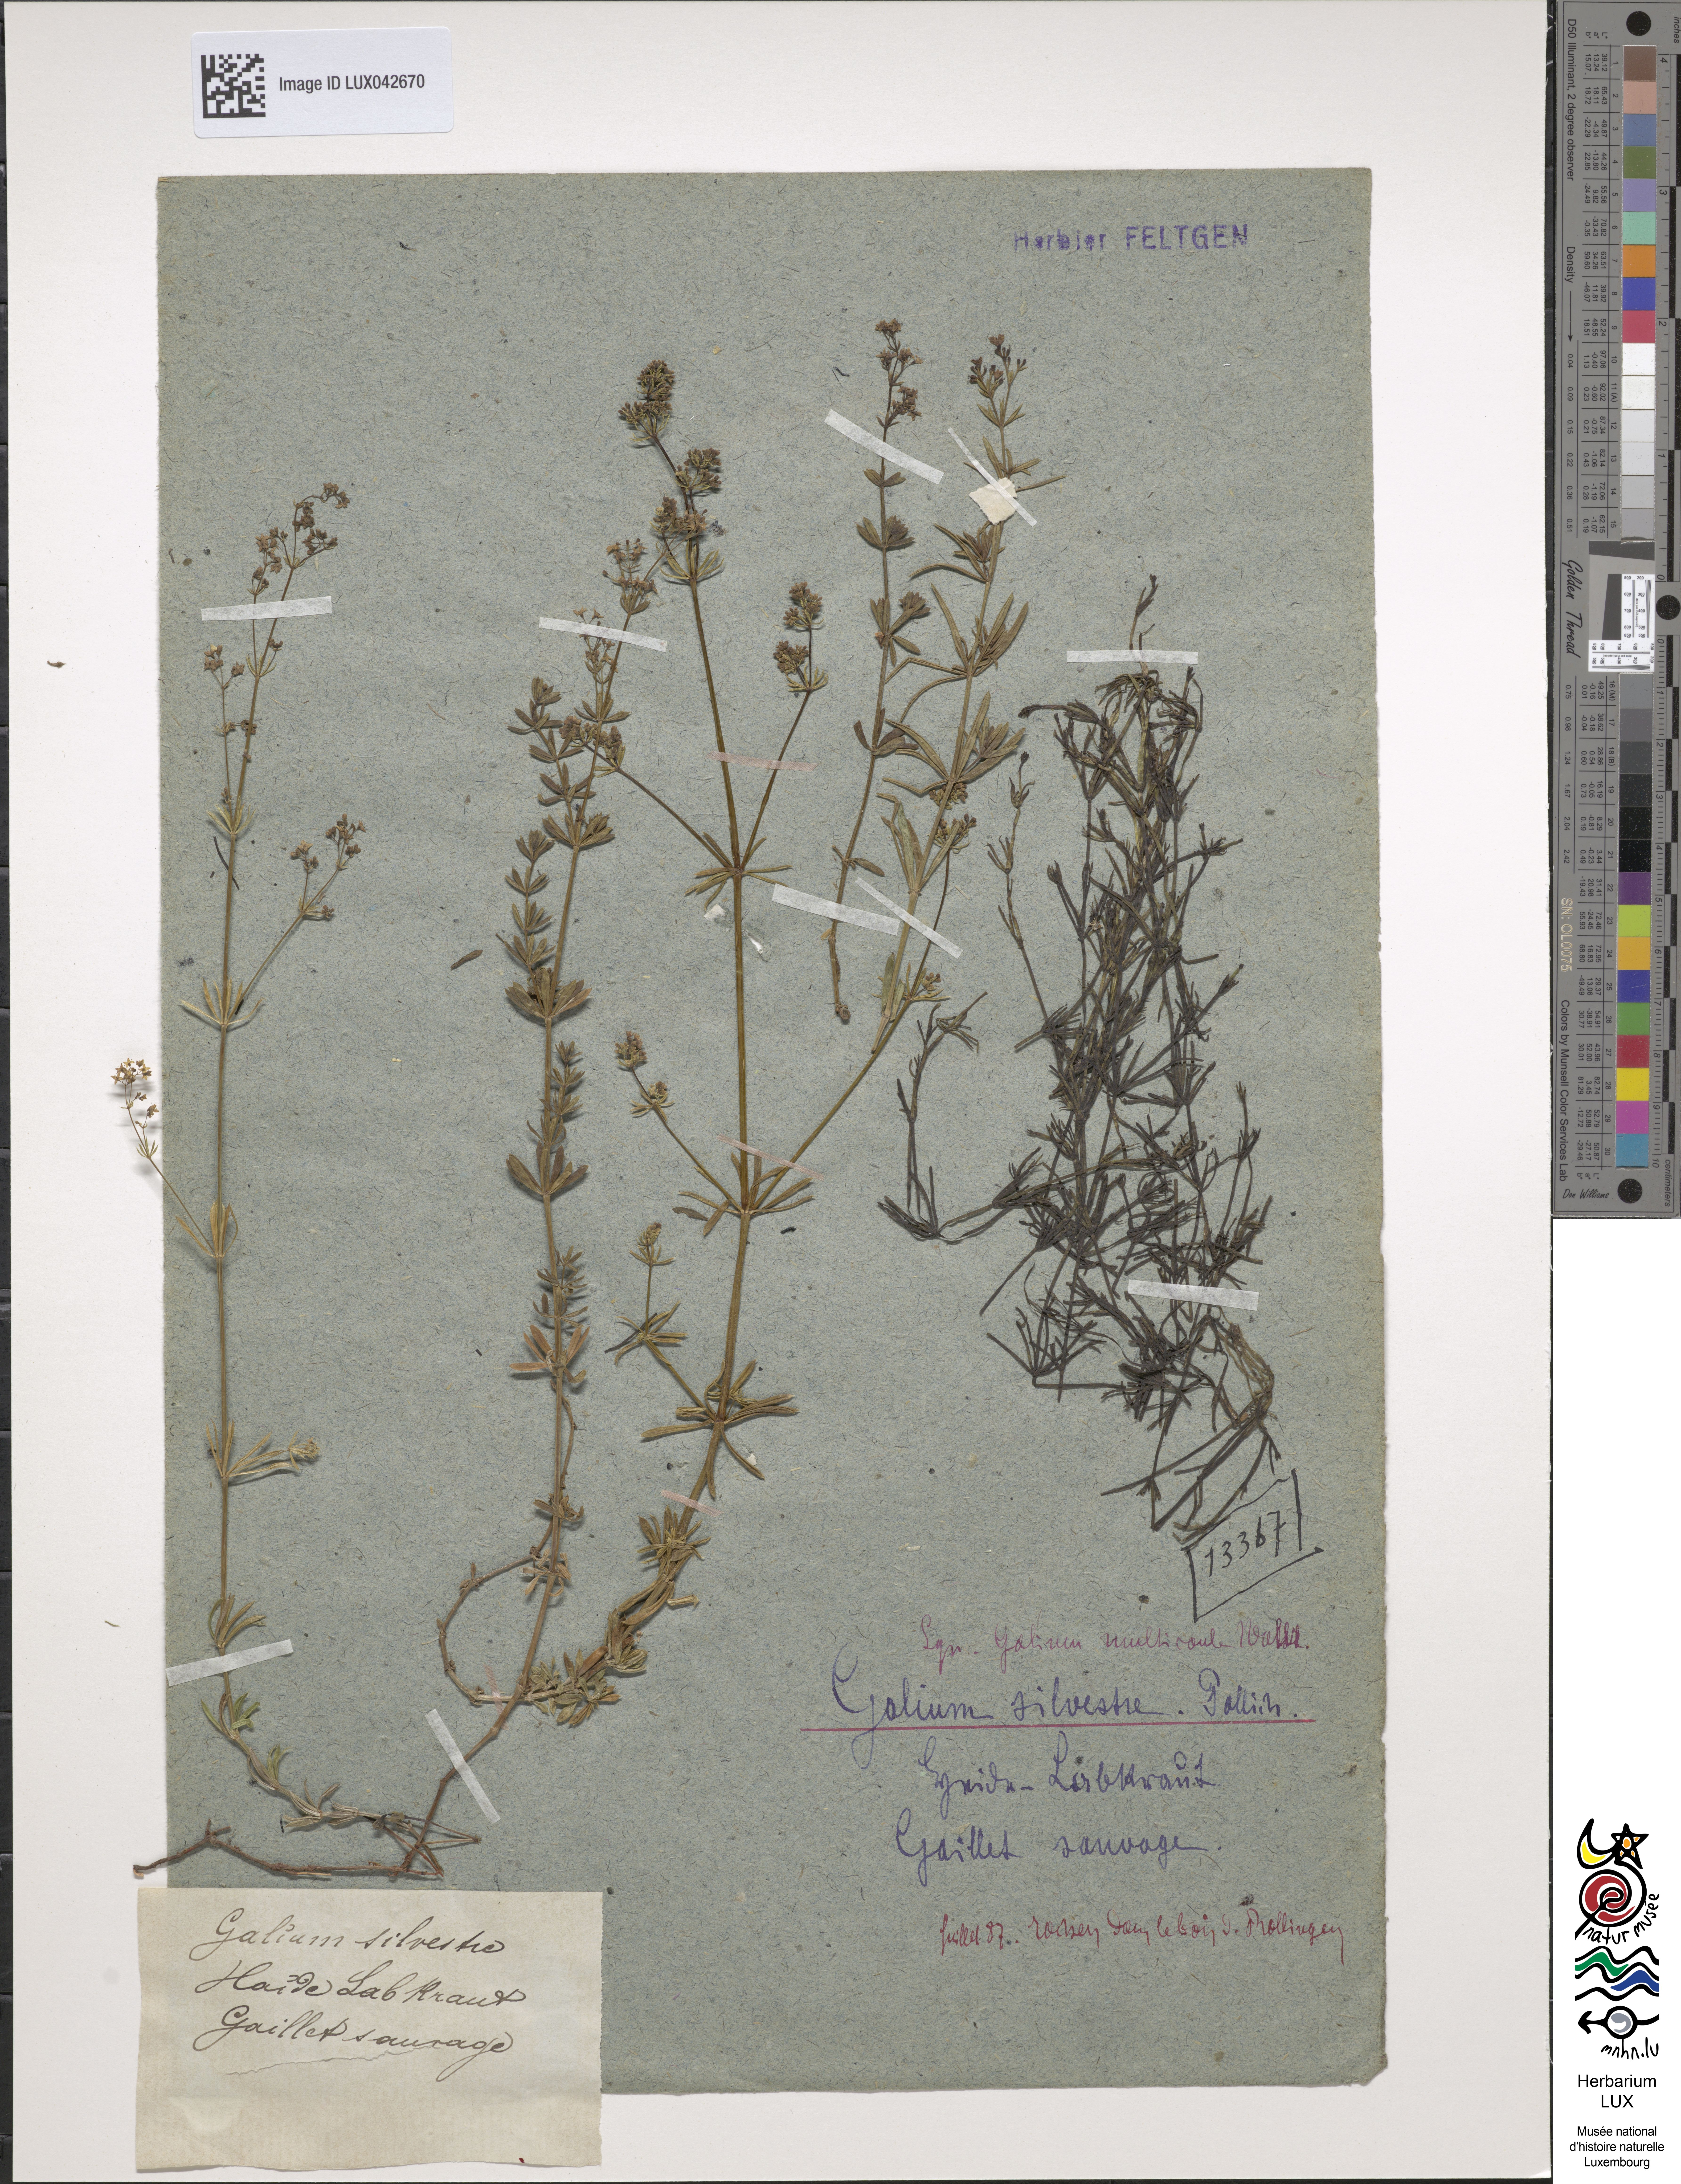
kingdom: Plantae
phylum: Tracheophyta
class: Magnoliopsida
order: Gentianales
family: Rubiaceae
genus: Galium
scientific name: Galium pumilum
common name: Slender bedstraw
